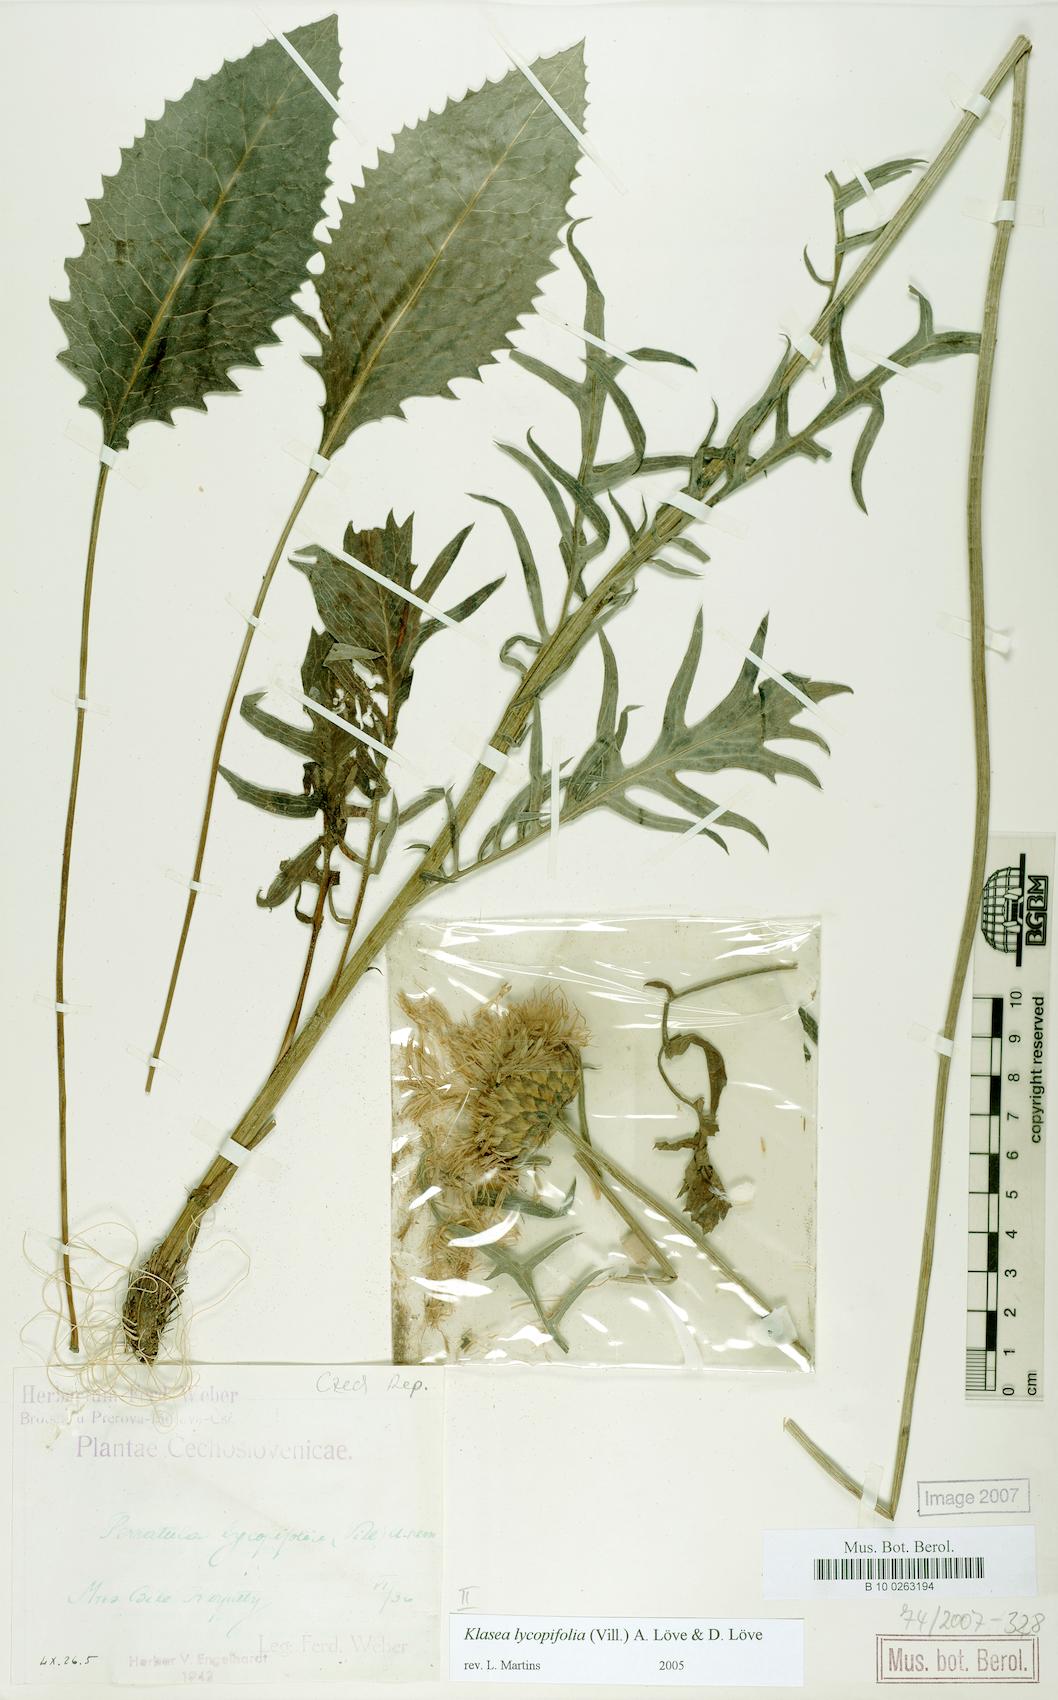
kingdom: Plantae
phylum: Tracheophyta
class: Magnoliopsida
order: Asterales
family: Asteraceae
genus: Klasea
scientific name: Klasea lycopifolia
